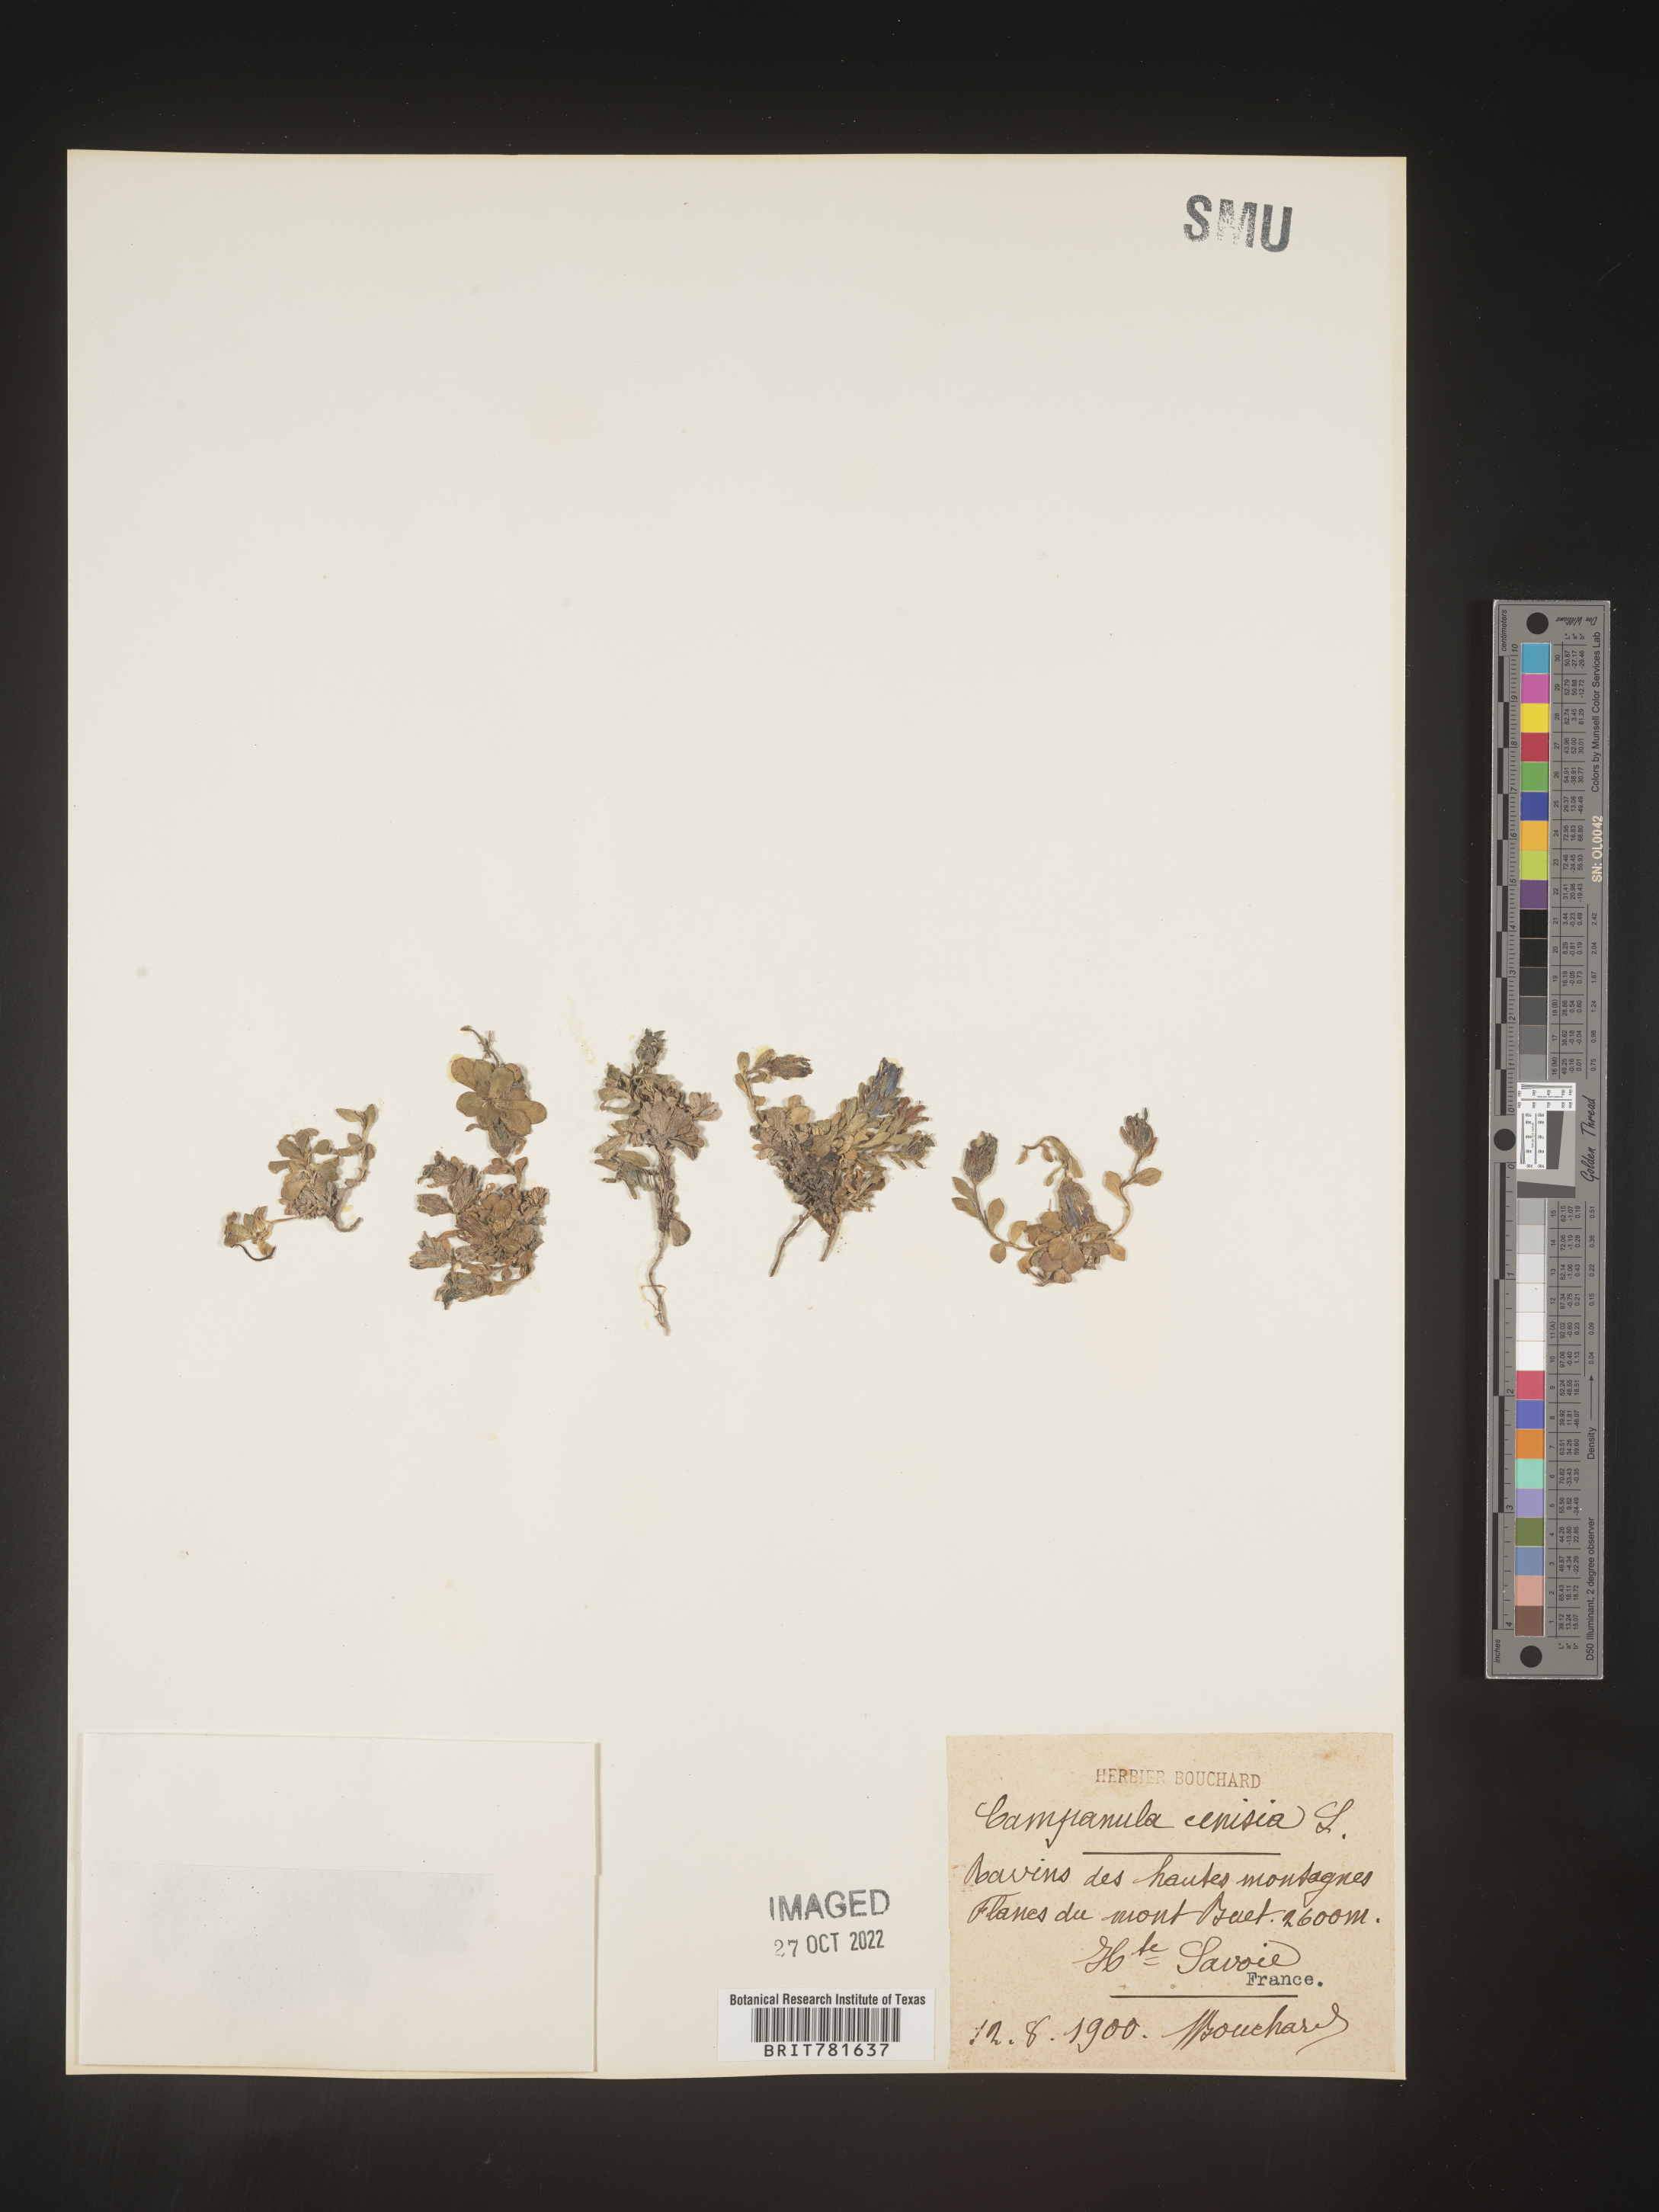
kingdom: Plantae
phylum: Tracheophyta
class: Magnoliopsida
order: Asterales
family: Campanulaceae
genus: Campanula
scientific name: Campanula
